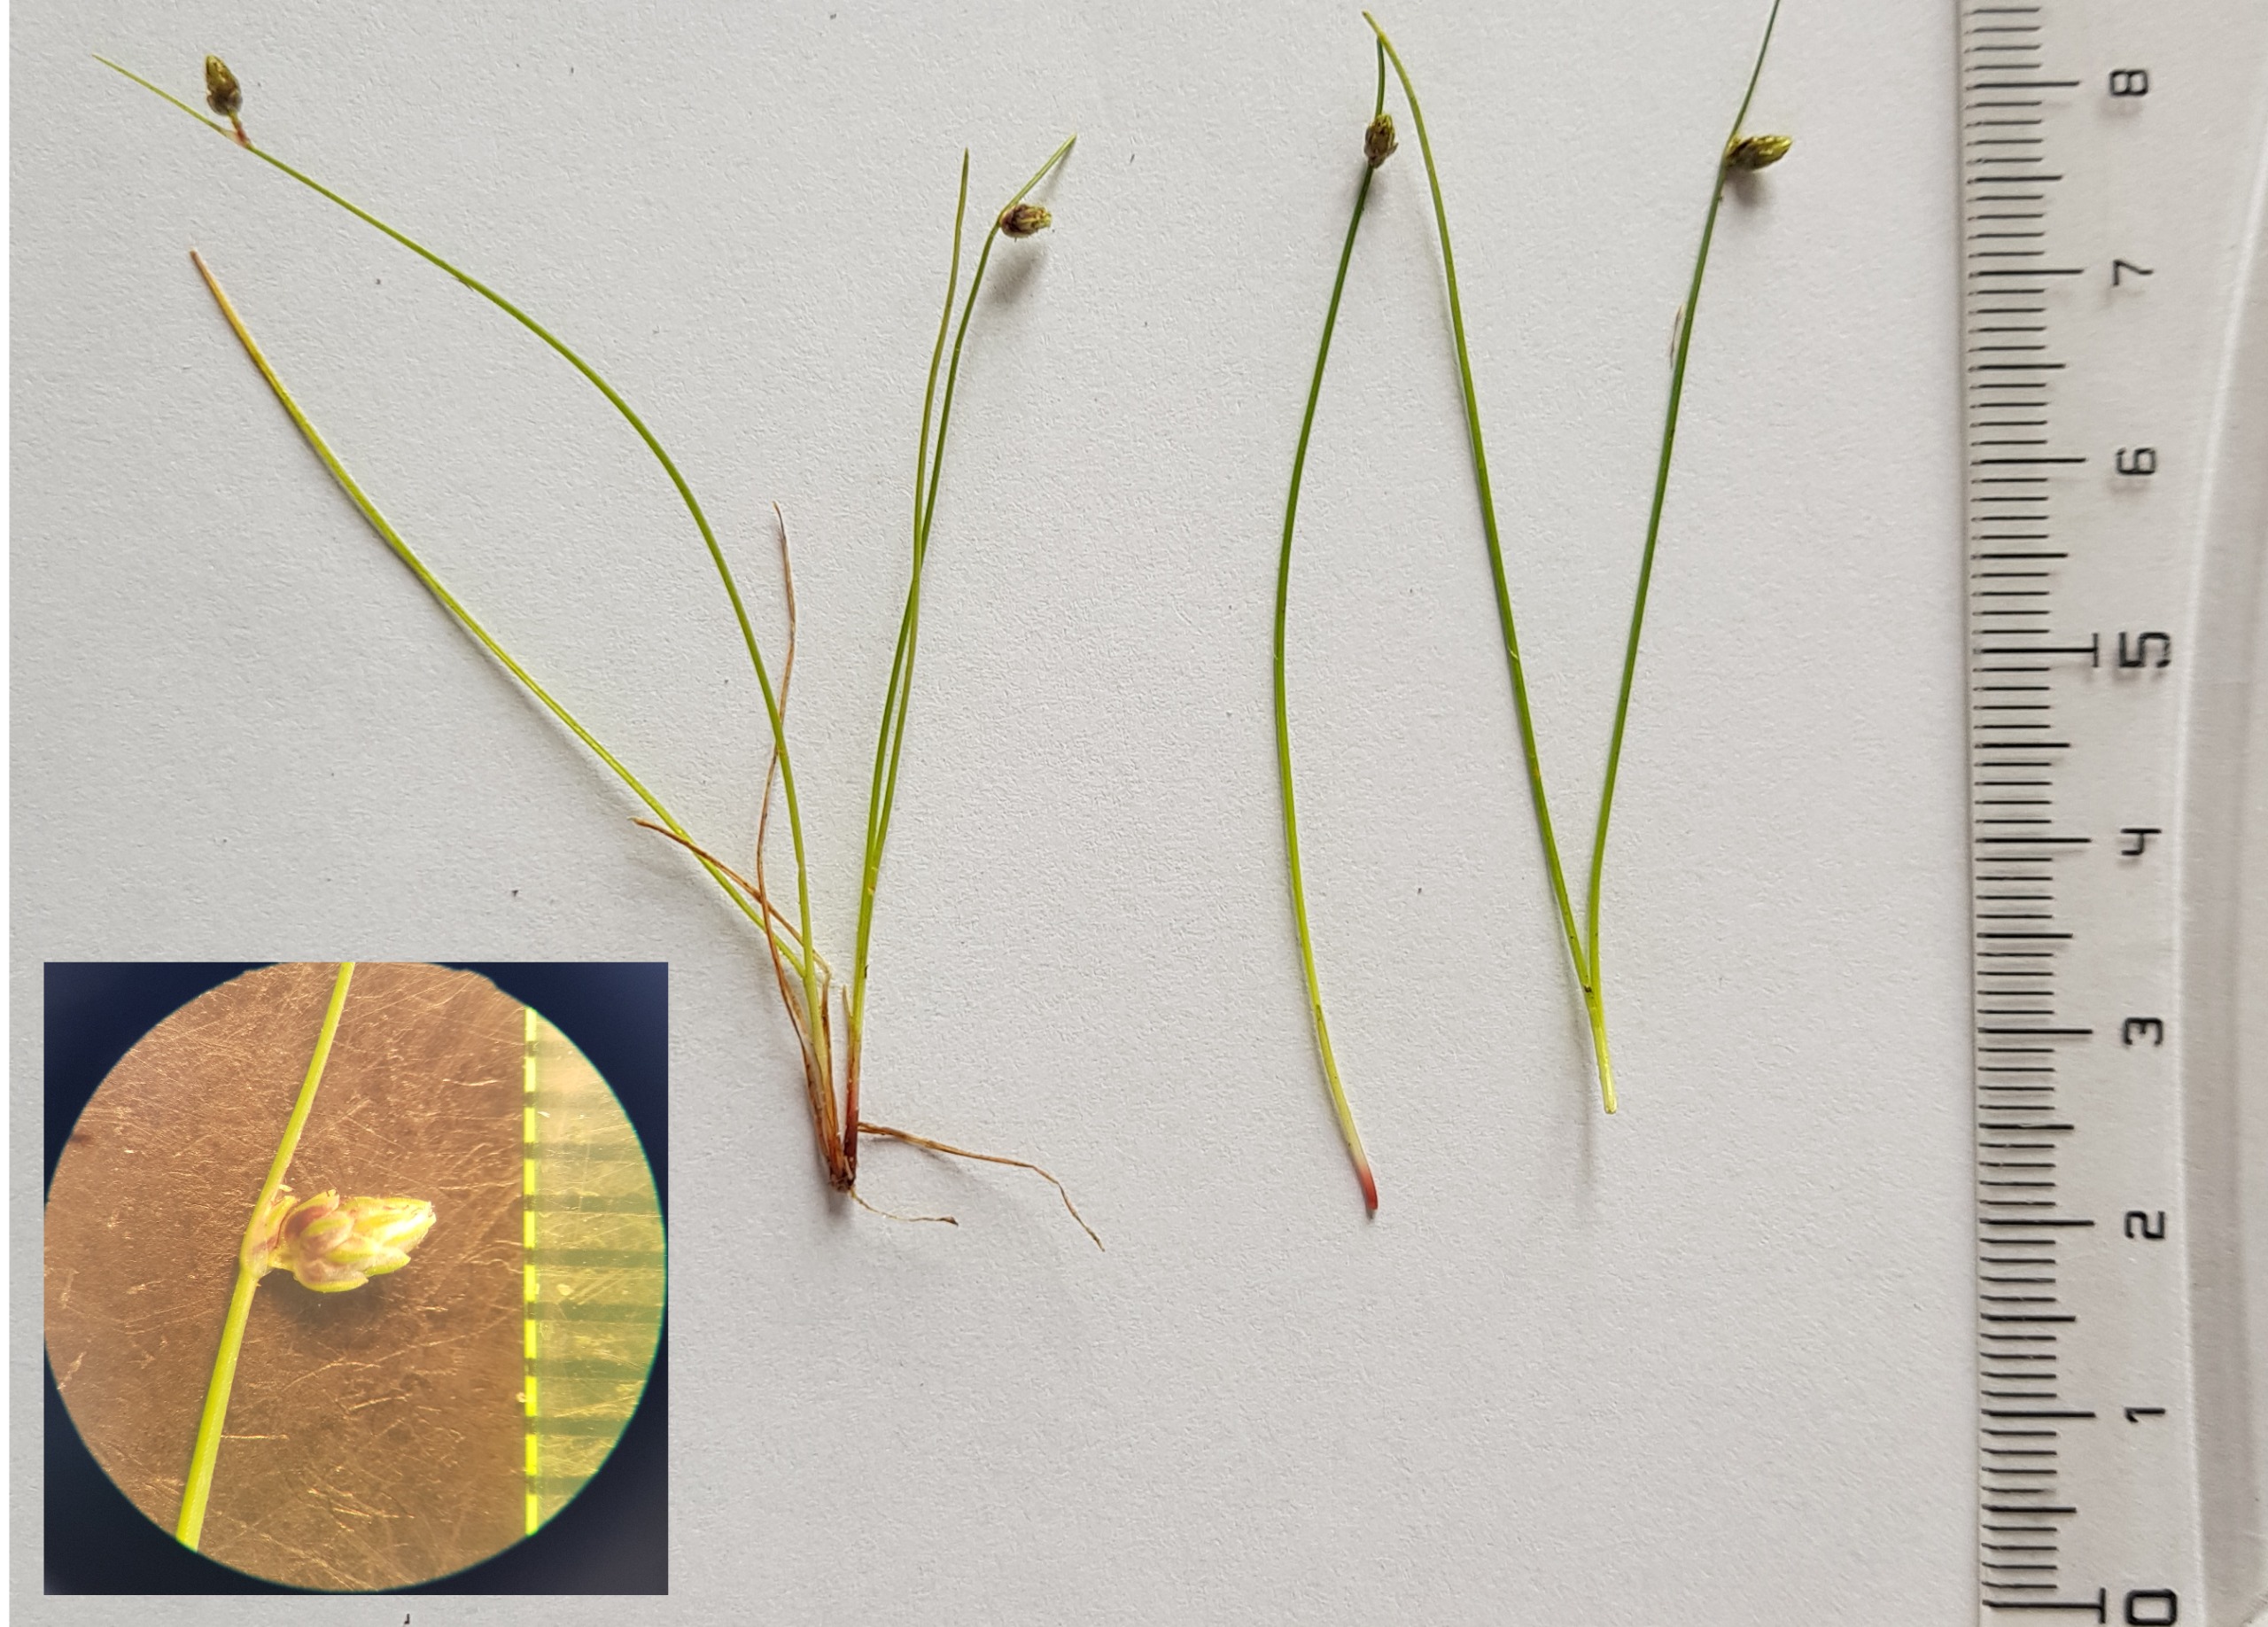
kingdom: Plantae
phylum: Tracheophyta
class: Liliopsida
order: Poales
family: Cyperaceae
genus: Isolepis
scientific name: Isolepis setacea
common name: Børste-kogleaks
